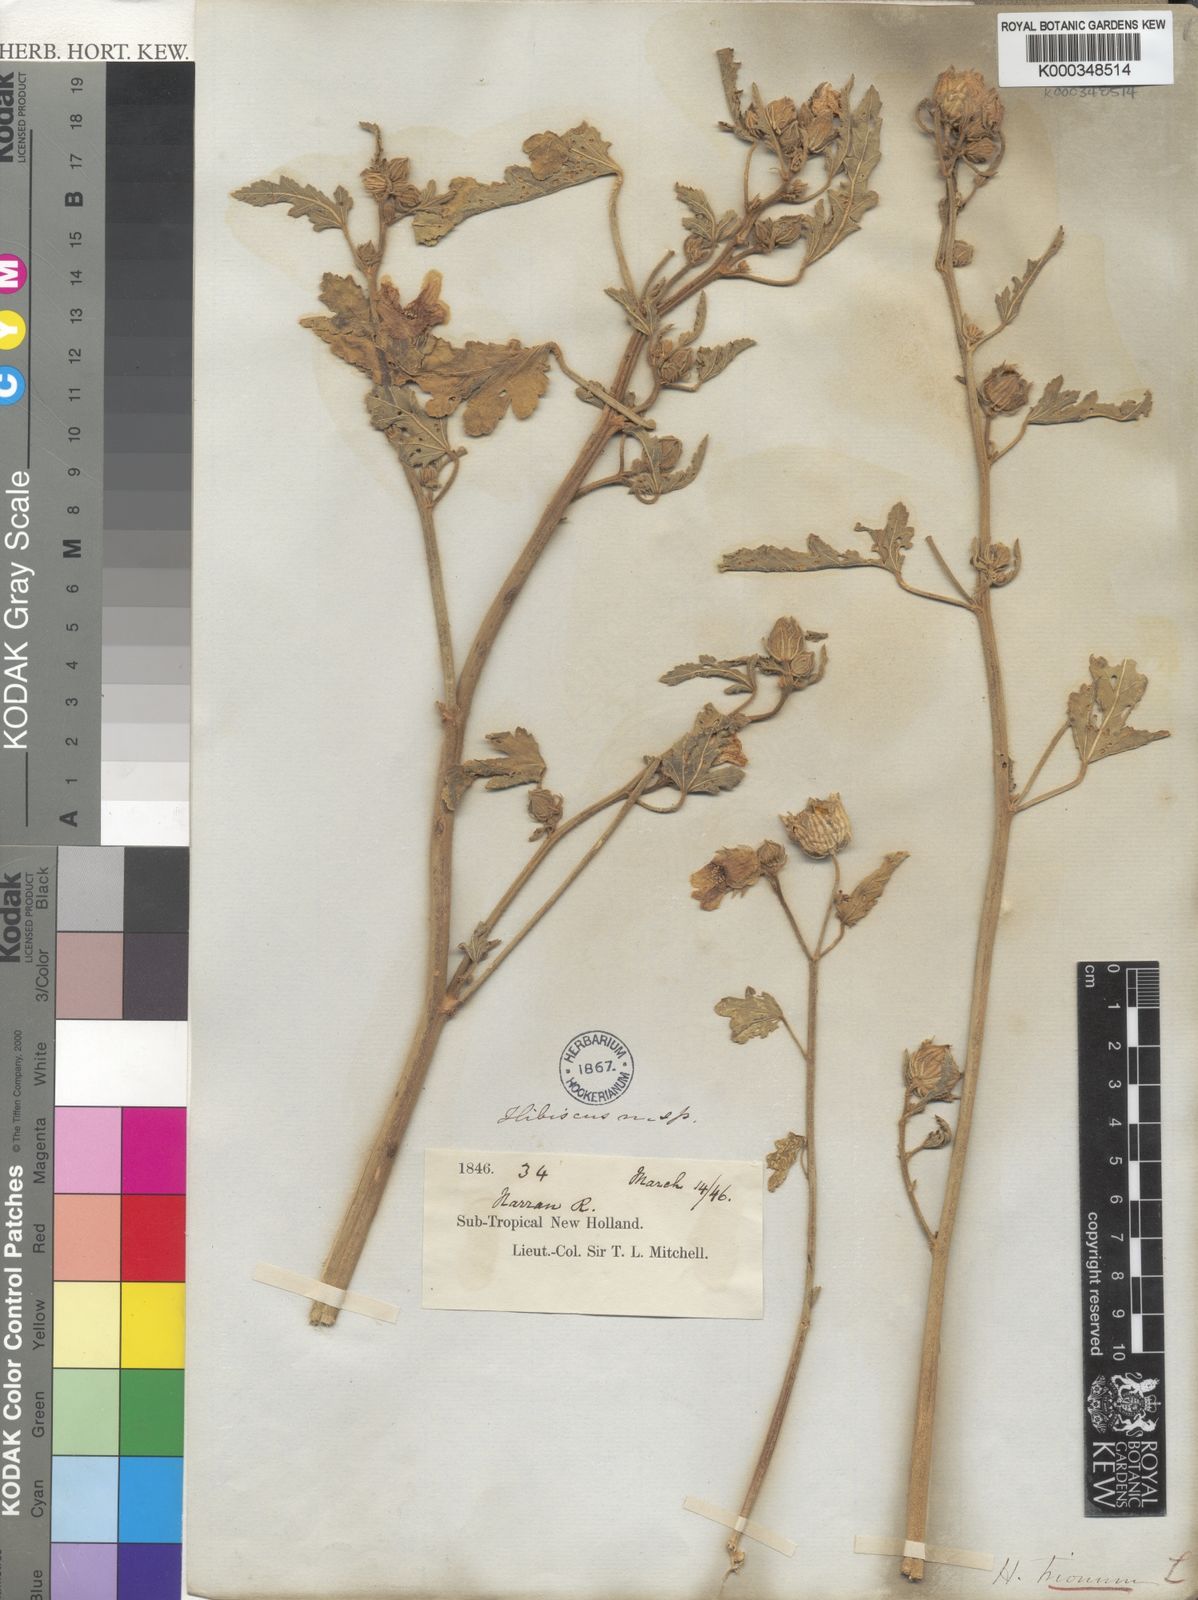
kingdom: Plantae
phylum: Tracheophyta
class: Magnoliopsida
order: Malvales
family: Malvaceae
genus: Hibiscus
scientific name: Hibiscus trionum
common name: Bladder ketmia
